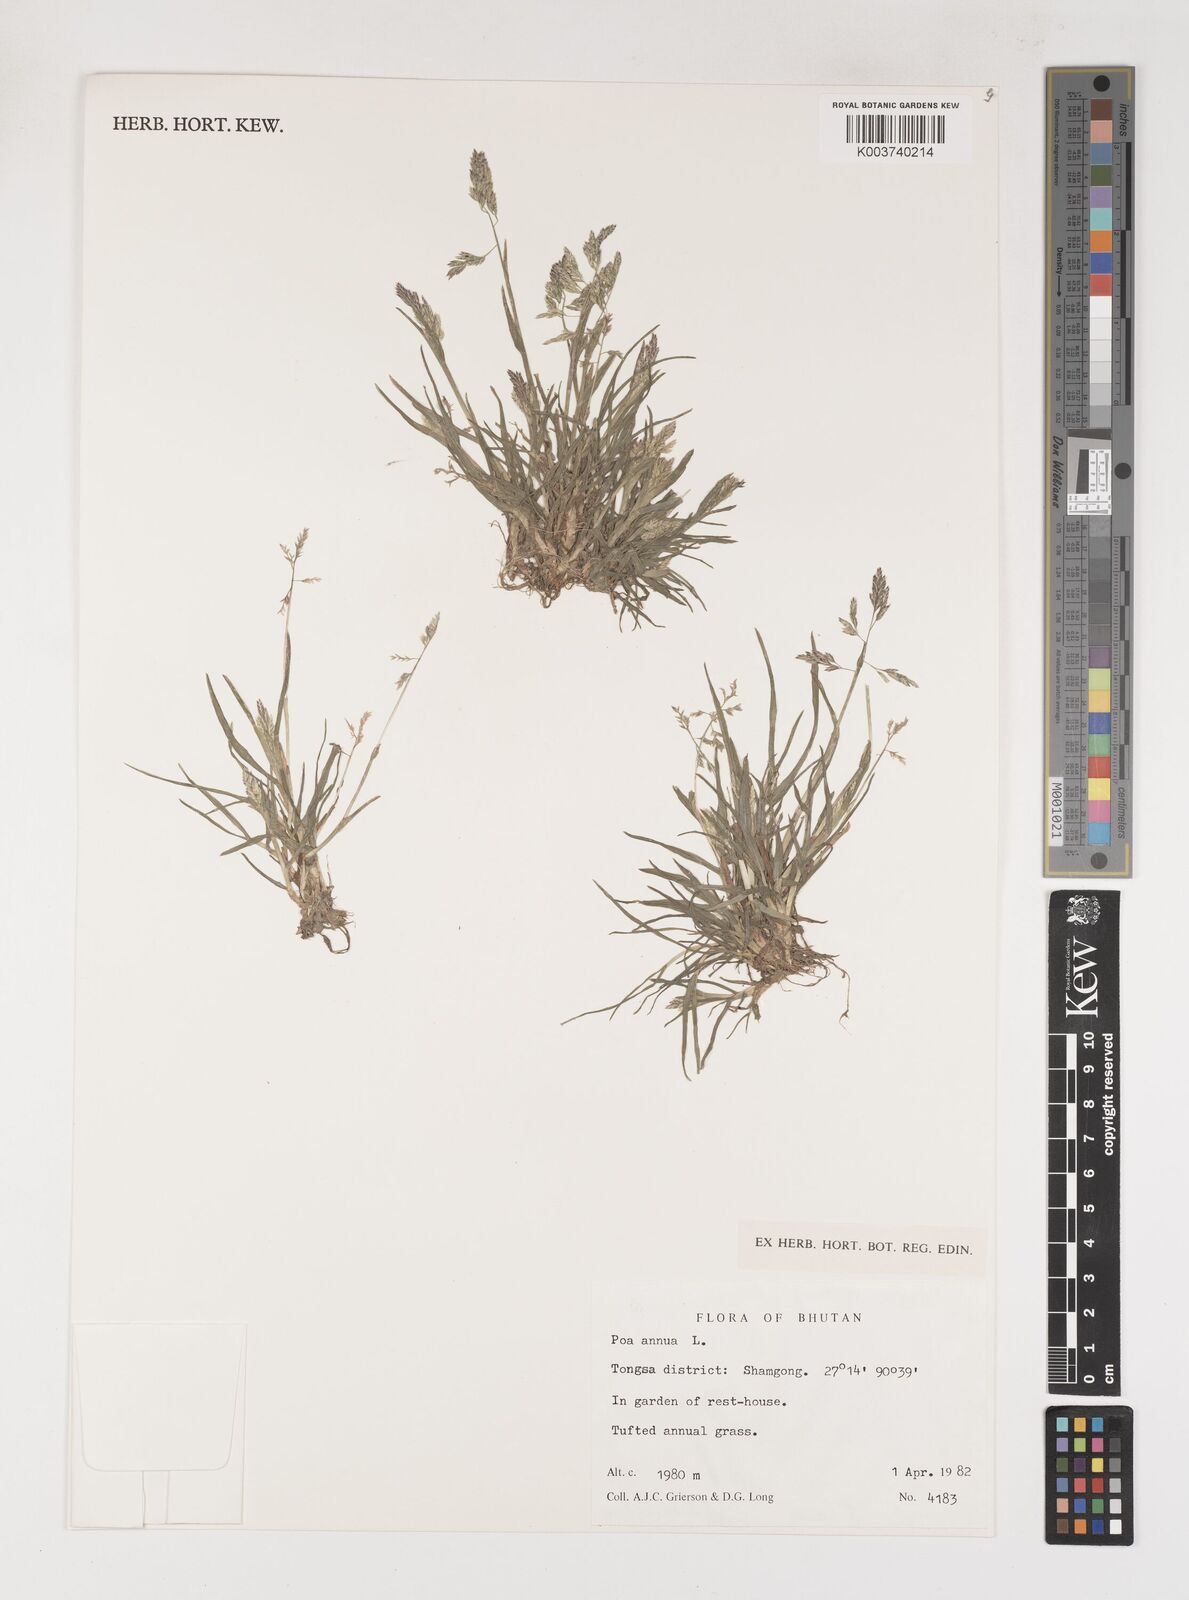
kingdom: Plantae
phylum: Tracheophyta
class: Liliopsida
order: Poales
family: Poaceae
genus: Poa
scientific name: Poa annua
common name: Annual bluegrass
